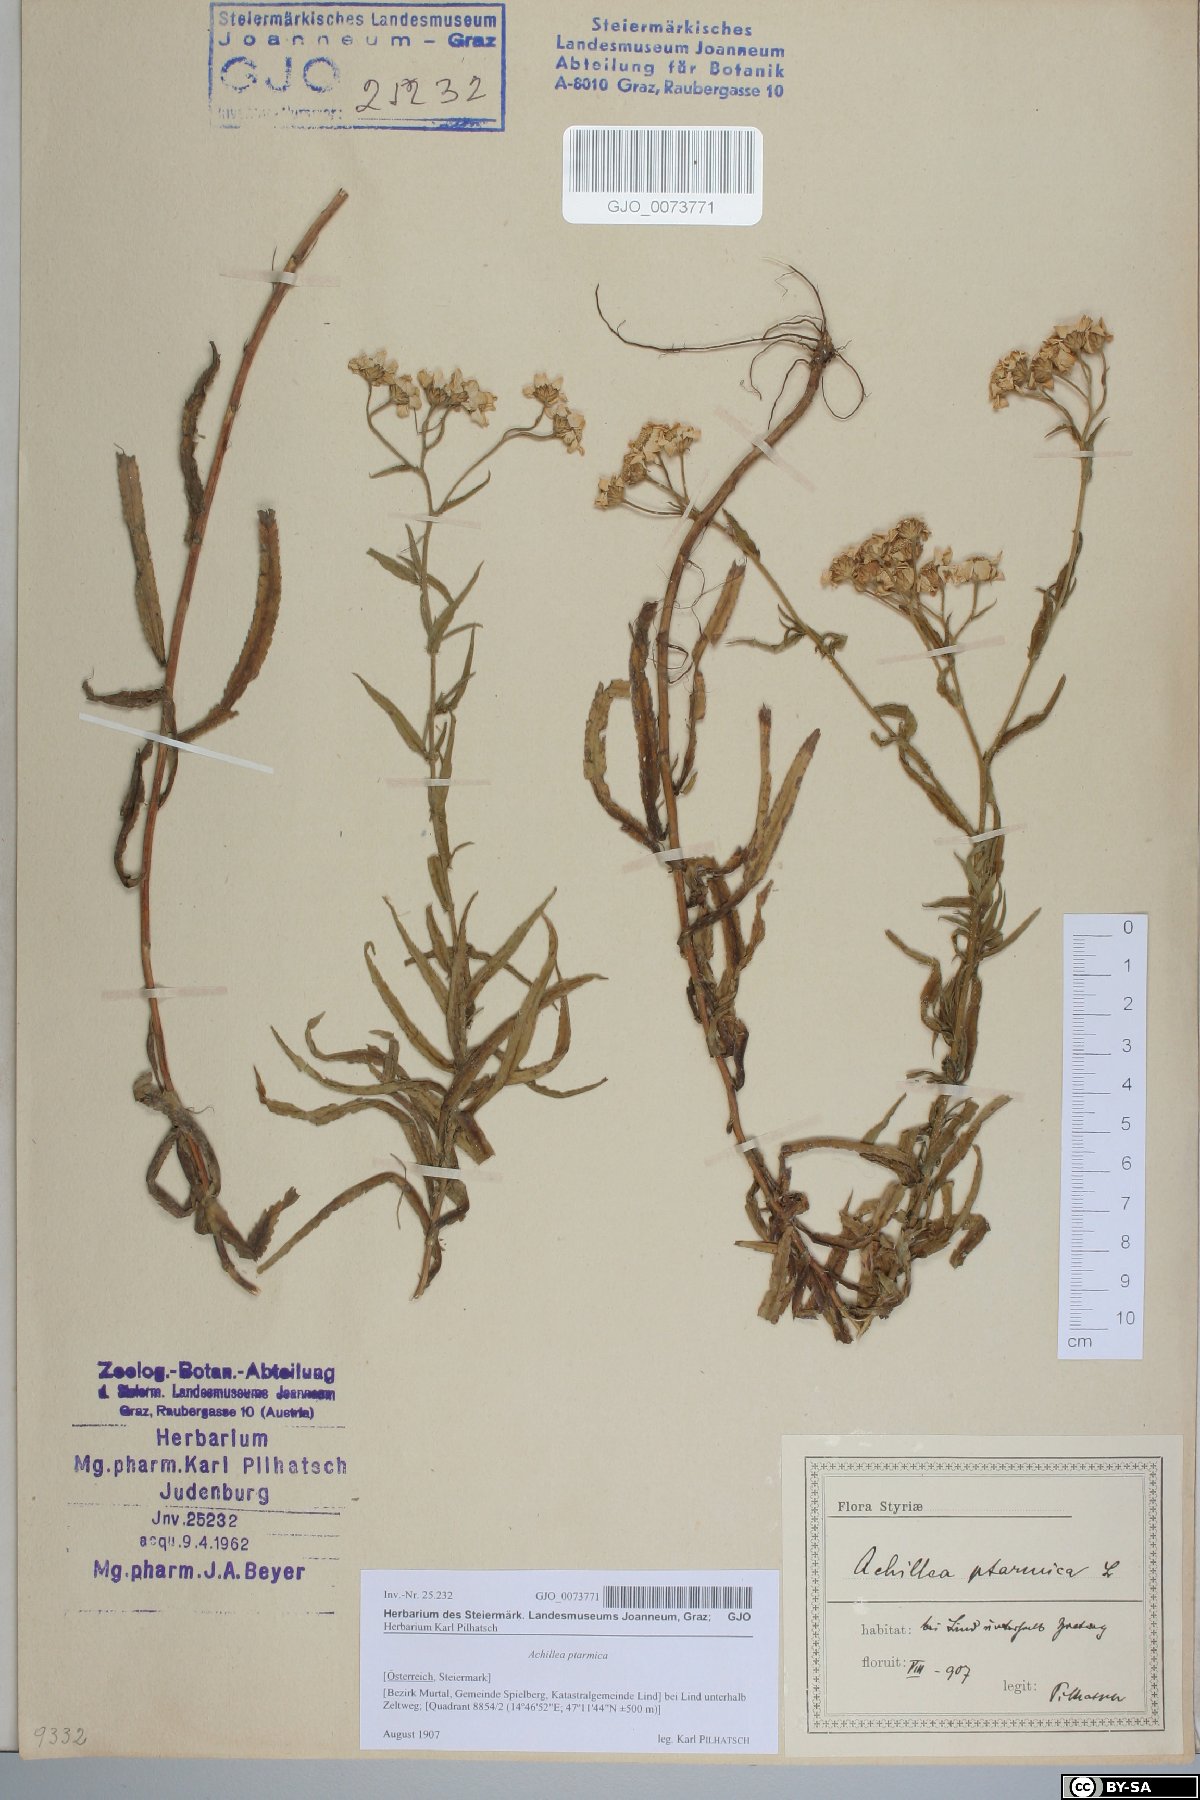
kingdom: Plantae
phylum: Tracheophyta
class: Magnoliopsida
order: Asterales
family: Asteraceae
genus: Achillea
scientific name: Achillea ptarmica
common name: Sneezeweed
